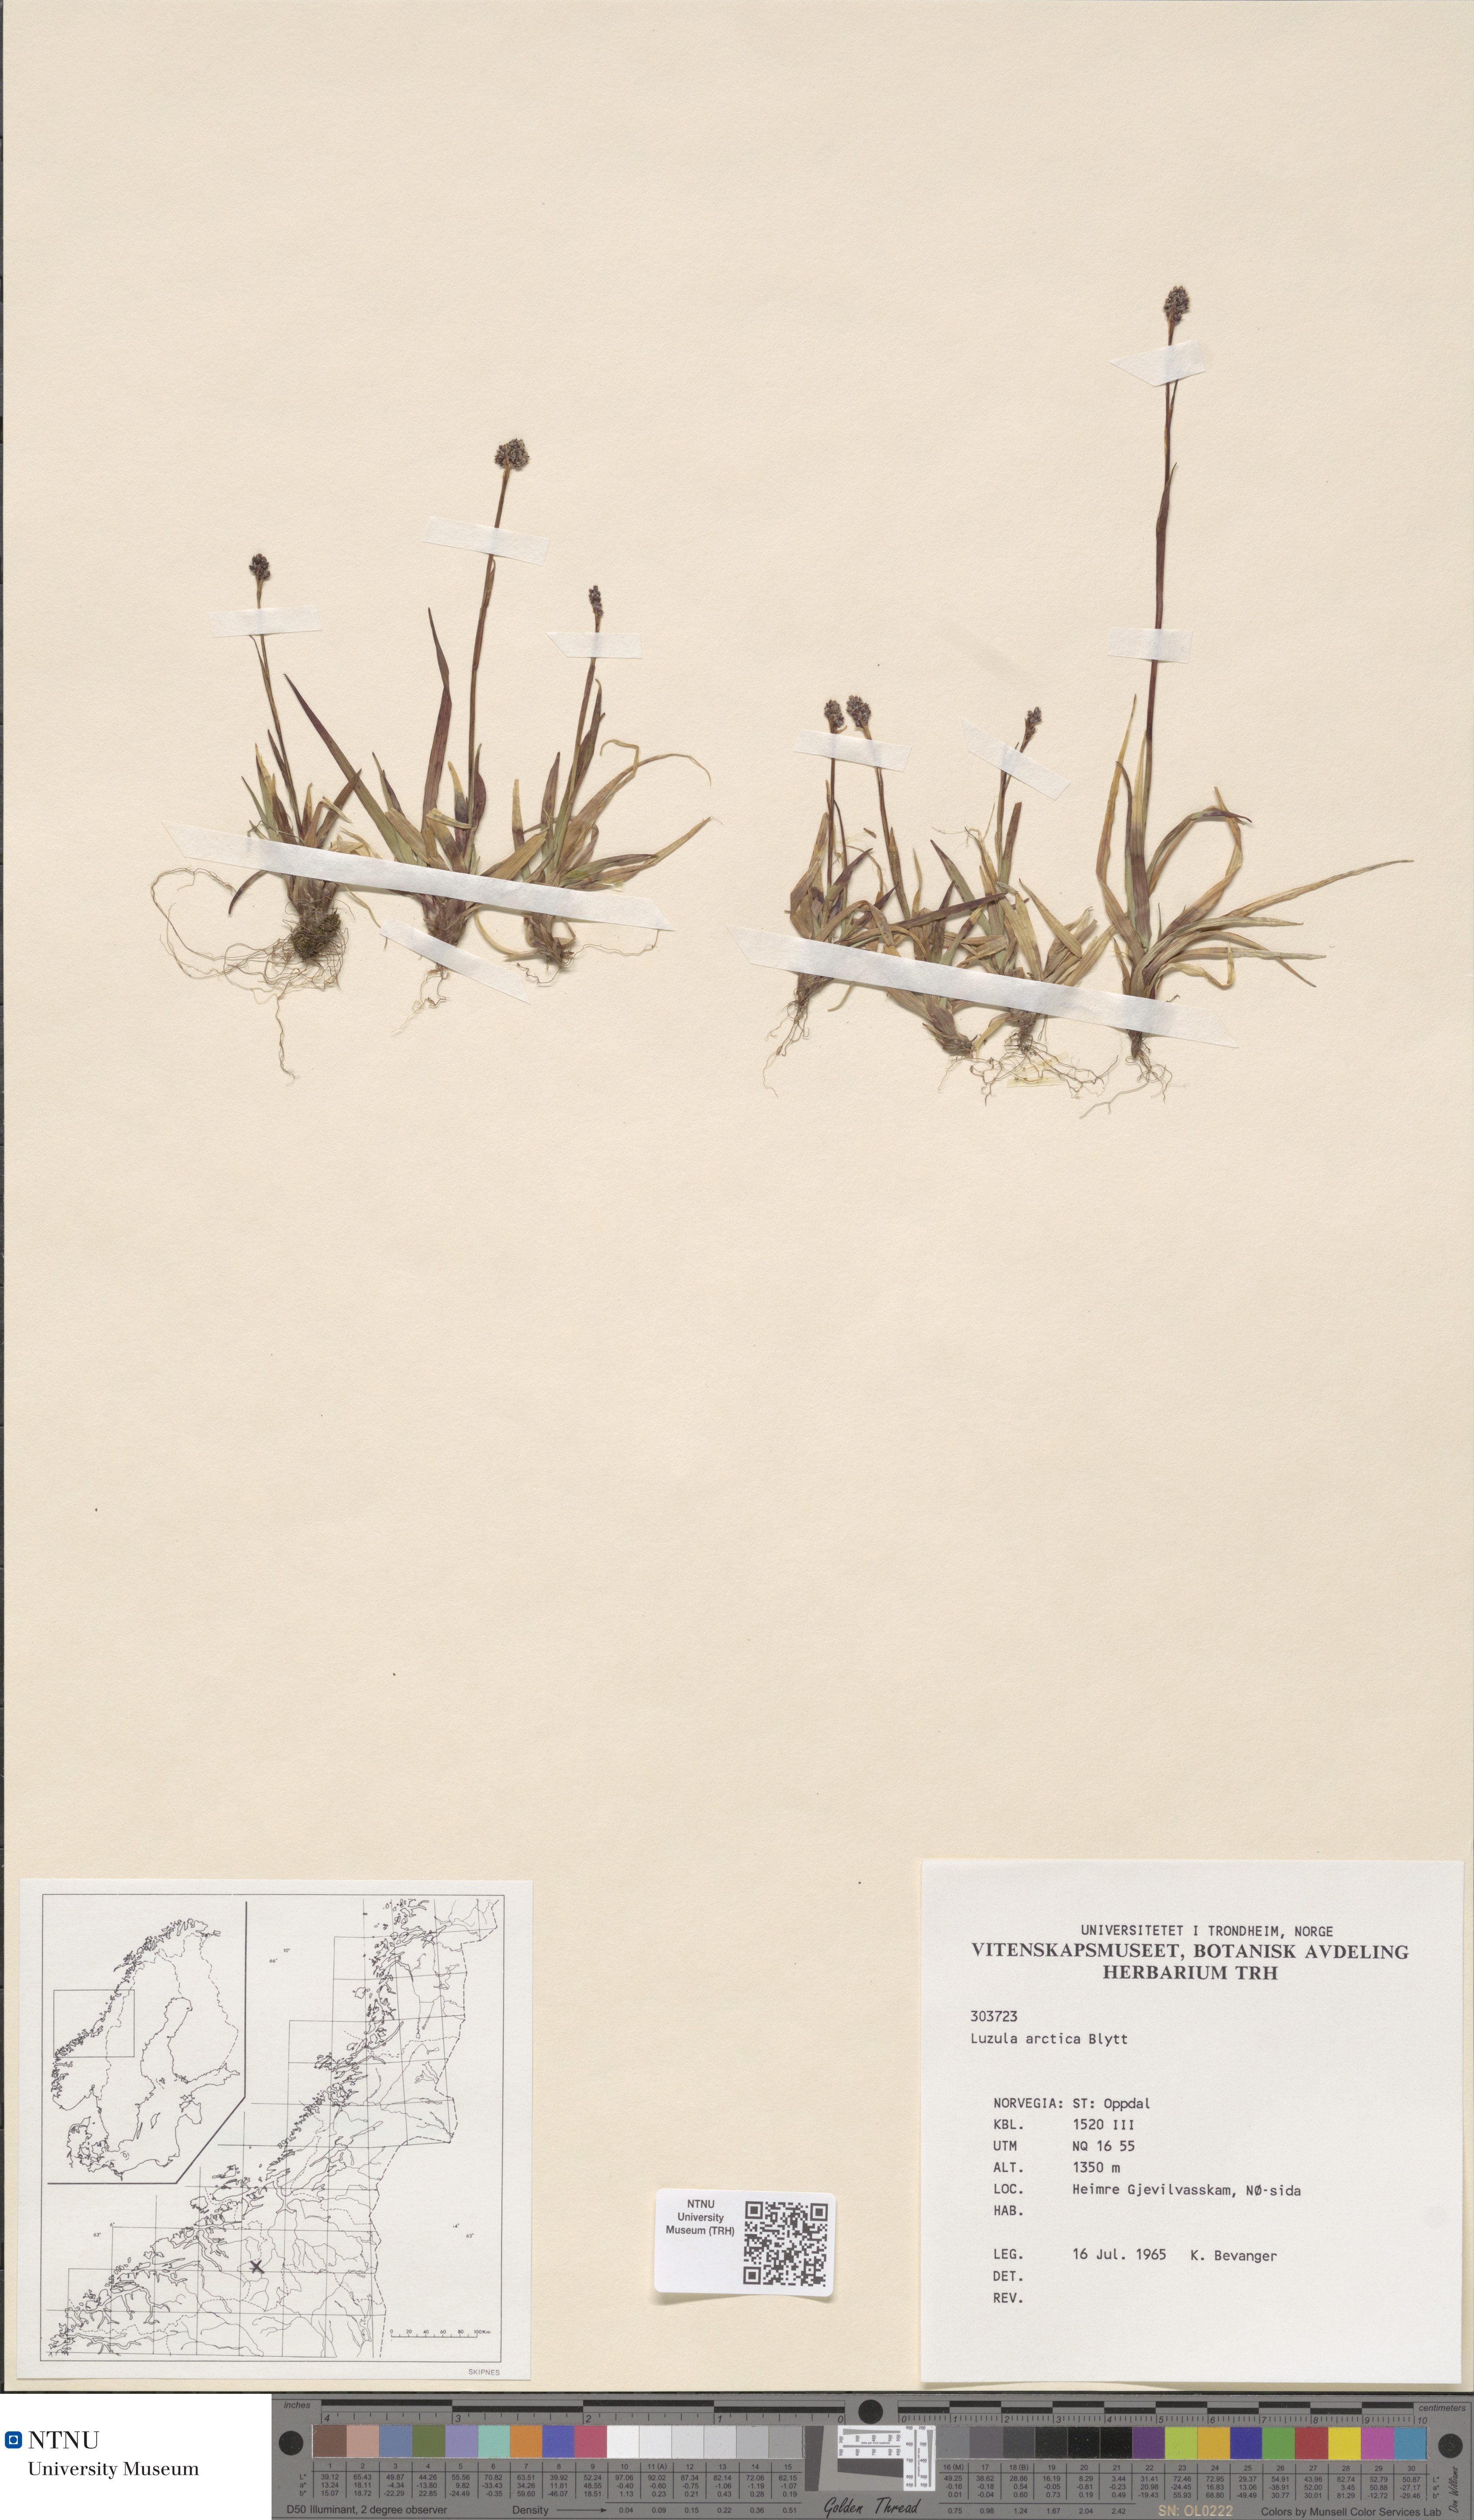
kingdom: Plantae
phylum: Tracheophyta
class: Liliopsida
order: Poales
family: Juncaceae
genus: Luzula
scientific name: Luzula nivalis
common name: Arctic woodrush
